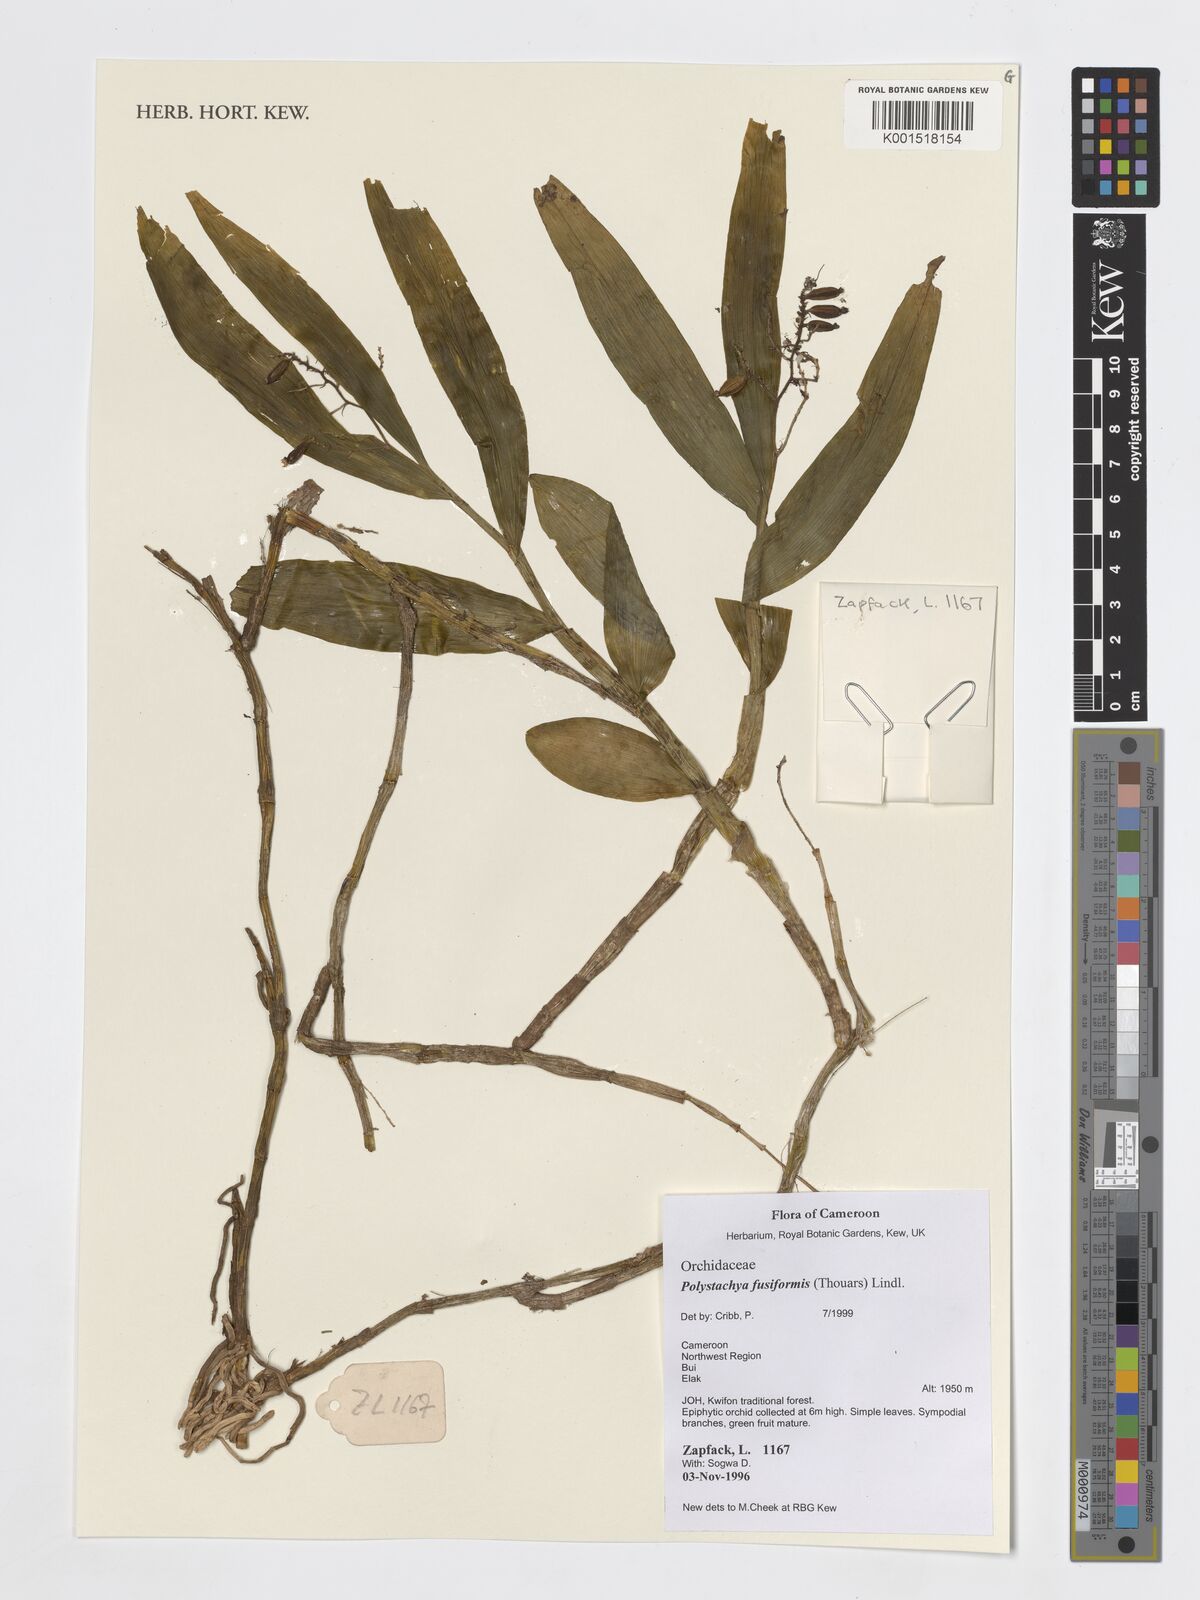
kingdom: Plantae
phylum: Tracheophyta
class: Liliopsida
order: Asparagales
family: Orchidaceae
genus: Polystachya
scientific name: Polystachya fusiformis
